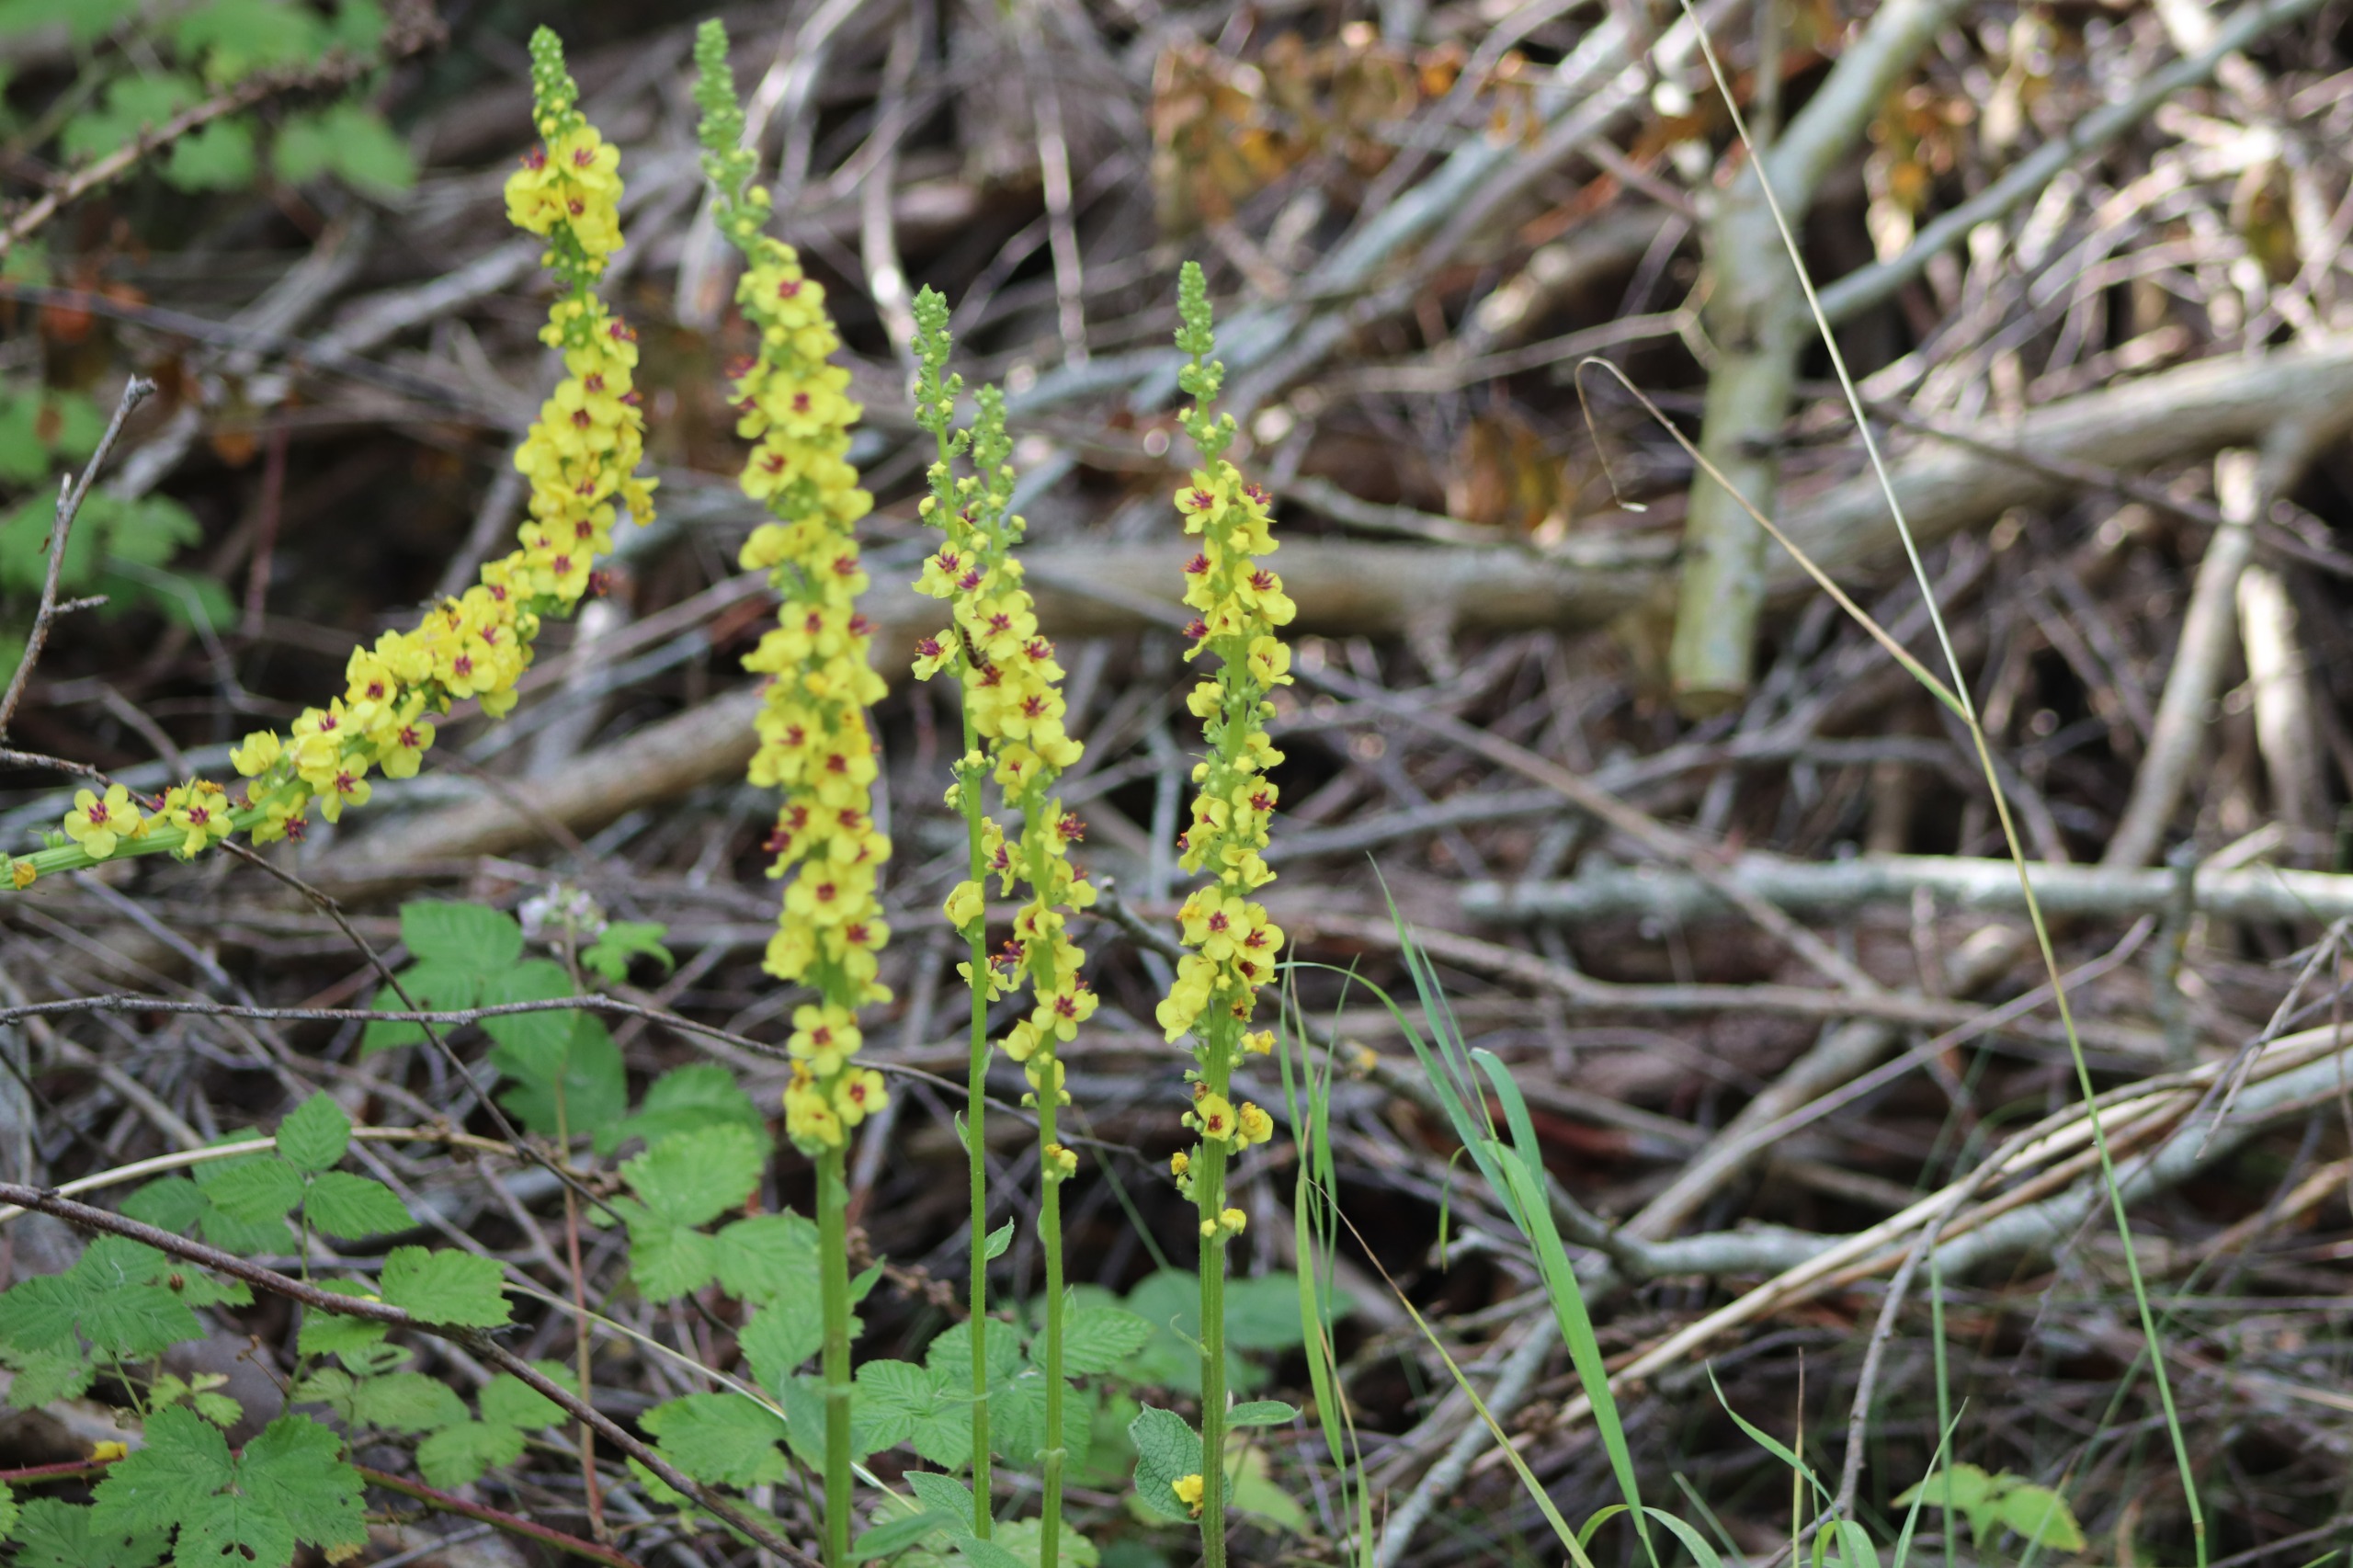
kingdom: Plantae
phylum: Tracheophyta
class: Magnoliopsida
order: Lamiales
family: Scrophulariaceae
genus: Verbascum
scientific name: Verbascum nigrum
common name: Mørk kongelys
